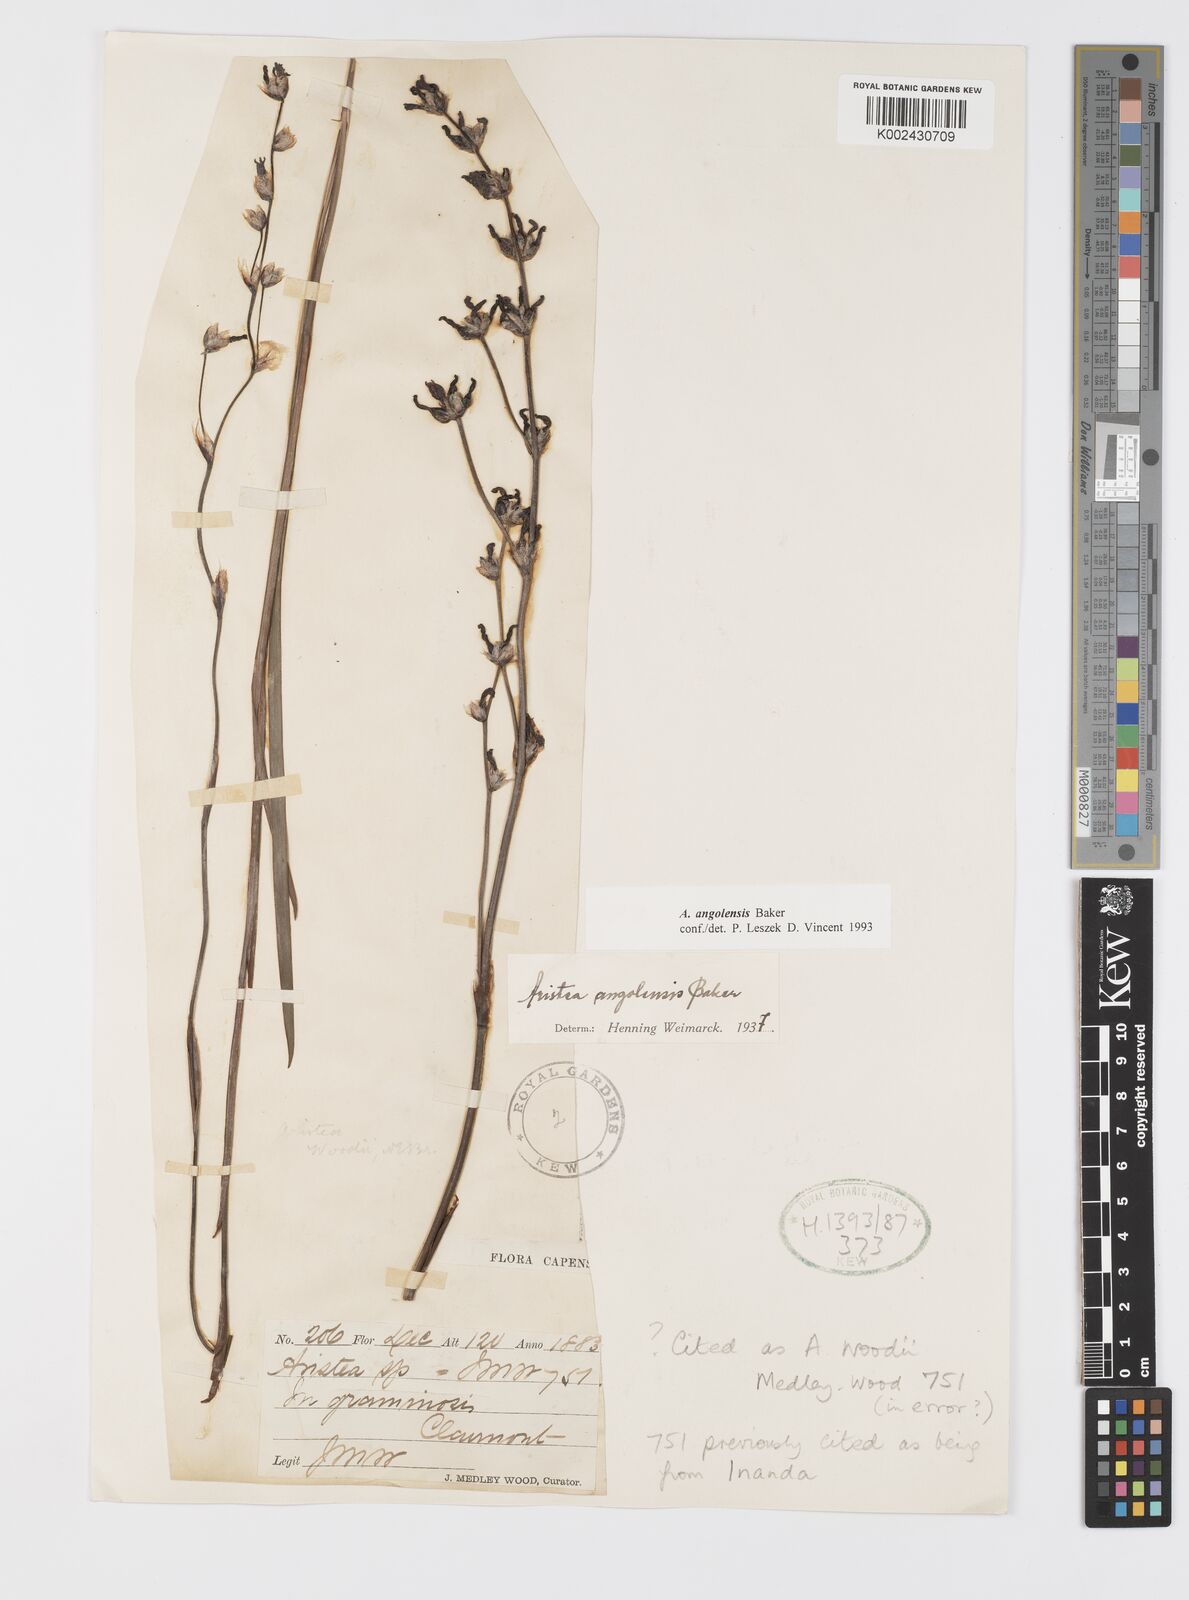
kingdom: Plantae
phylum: Tracheophyta
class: Liliopsida
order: Asparagales
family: Iridaceae
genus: Aristea
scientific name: Aristea angolensis
